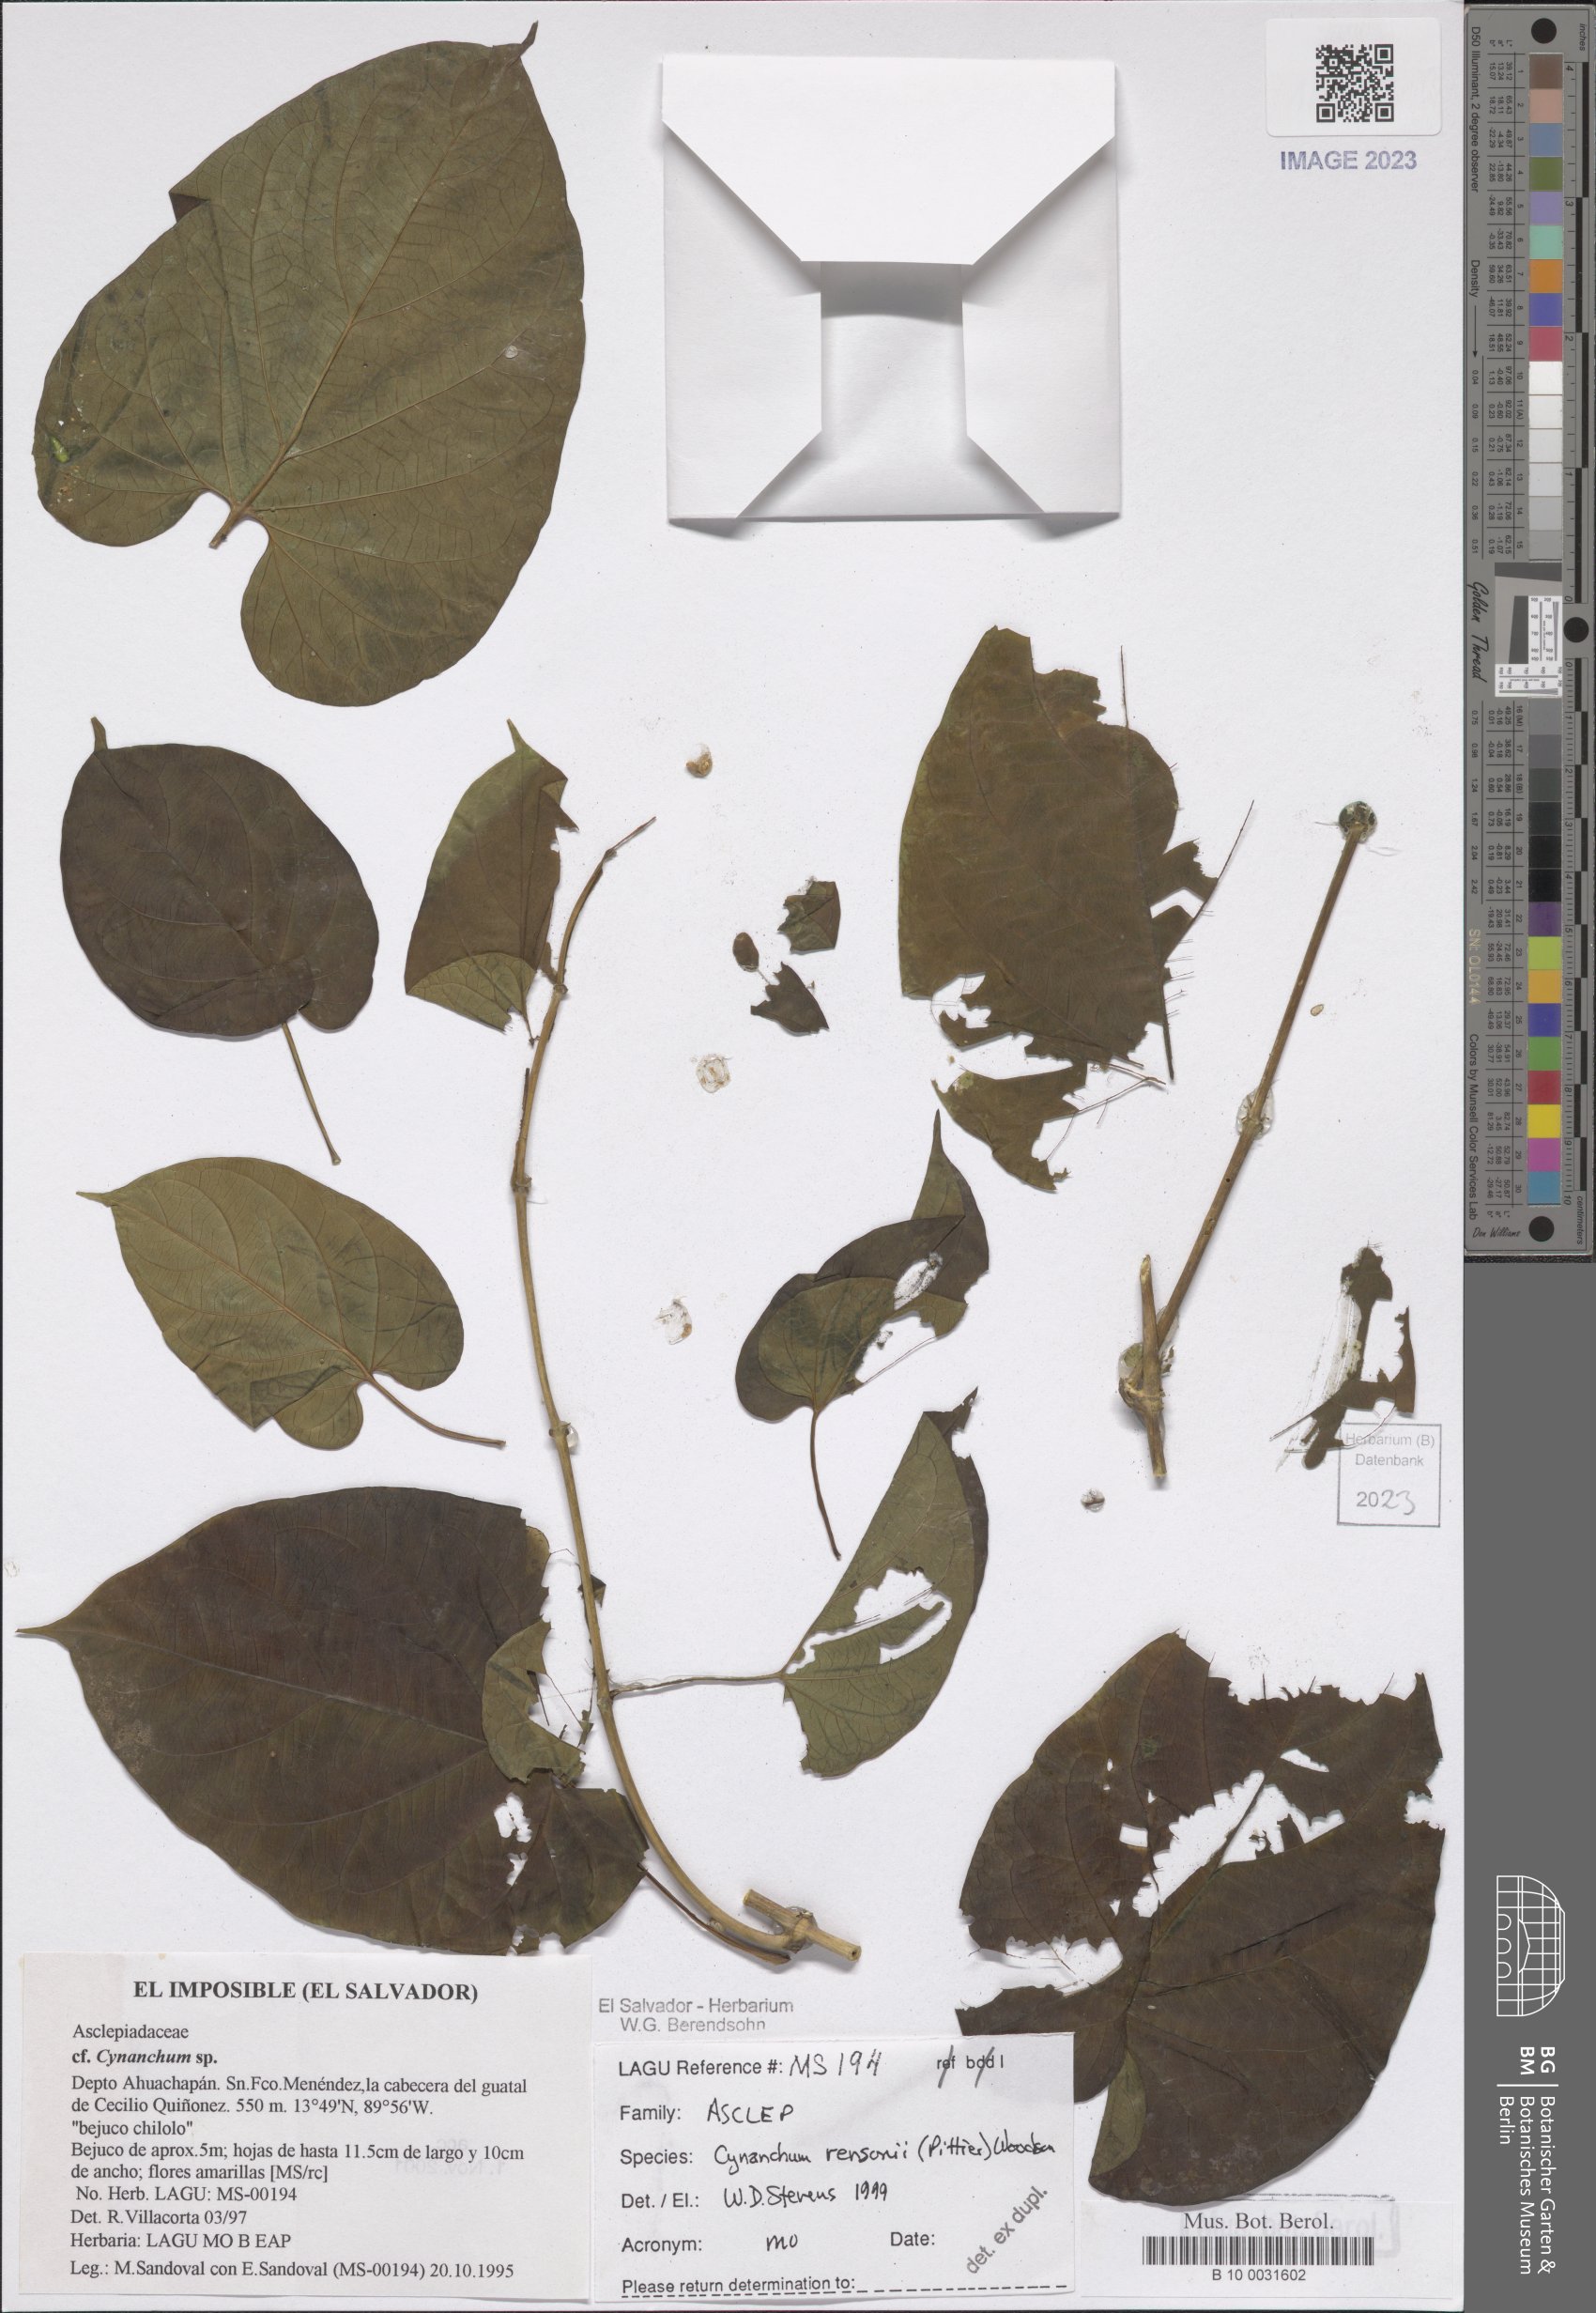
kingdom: Plantae
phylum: Tracheophyta
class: Magnoliopsida
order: Gentianales
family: Apocynaceae
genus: Cynanchum
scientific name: Cynanchum rensonii
